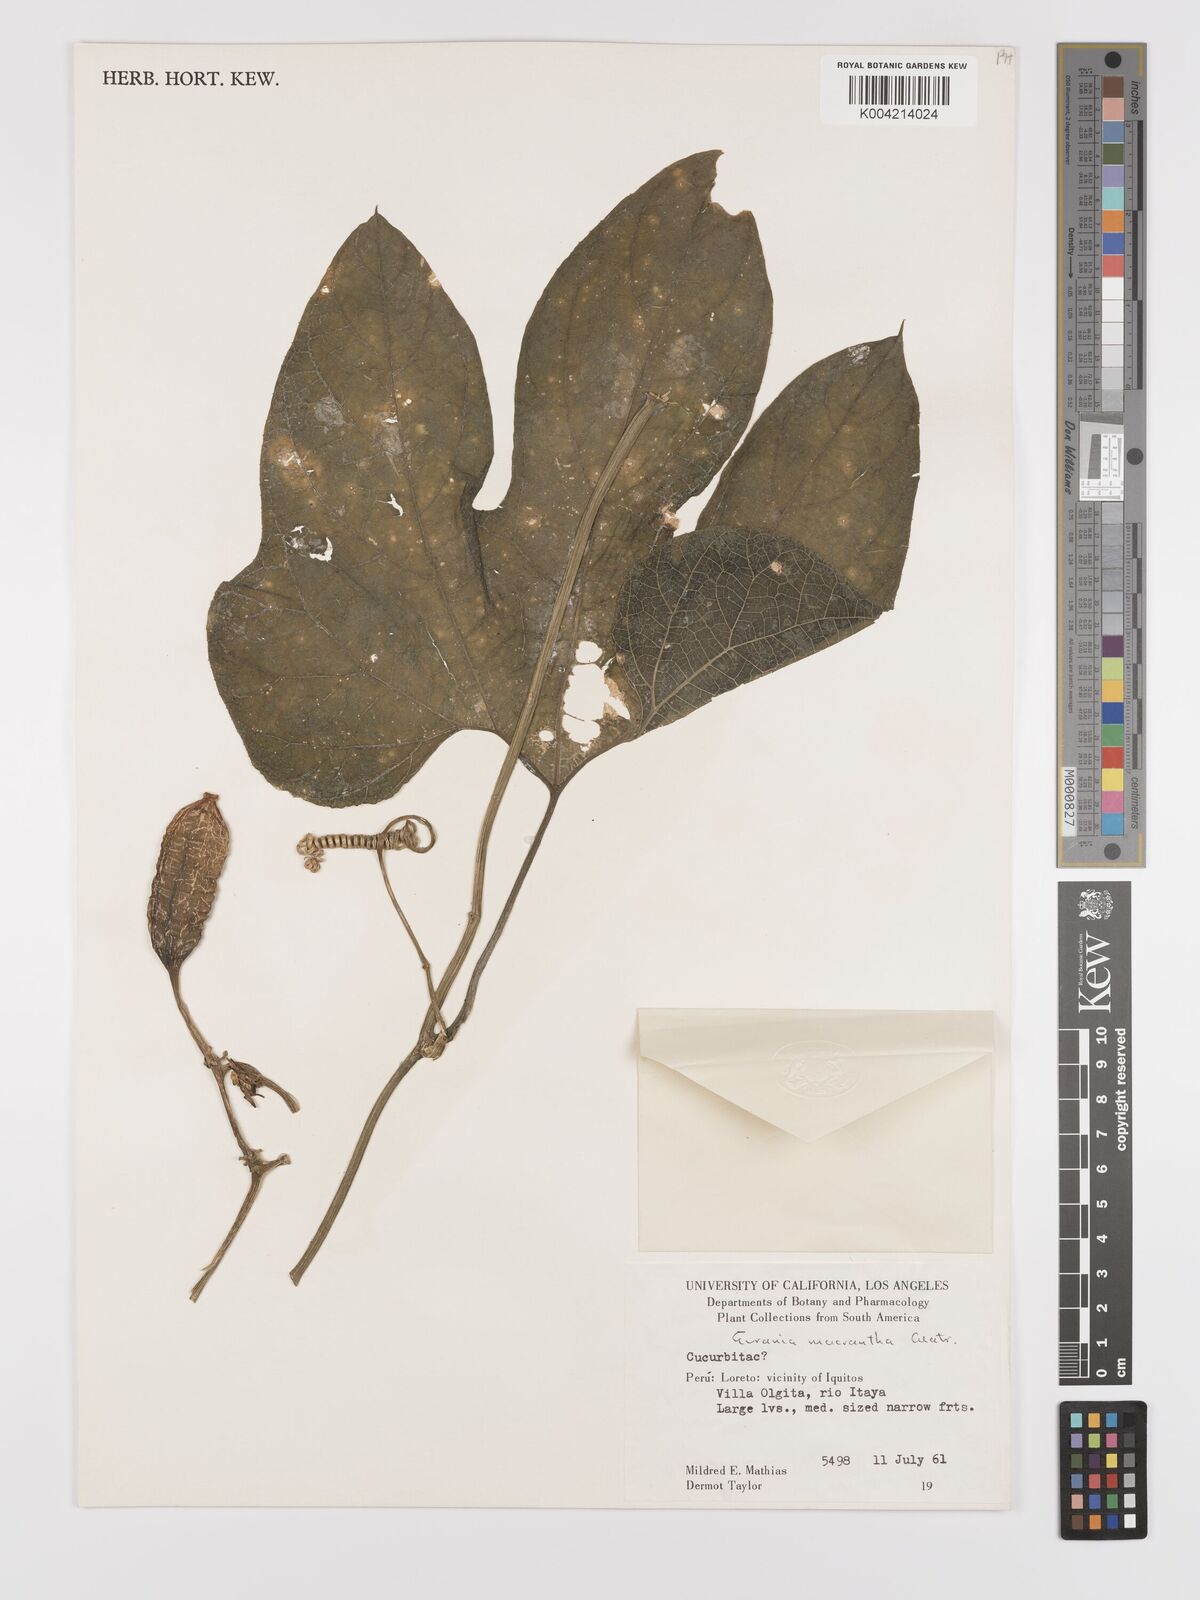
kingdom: Plantae
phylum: Tracheophyta
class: Magnoliopsida
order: Cucurbitales
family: Cucurbitaceae
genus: Gurania
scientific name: Gurania lobata
